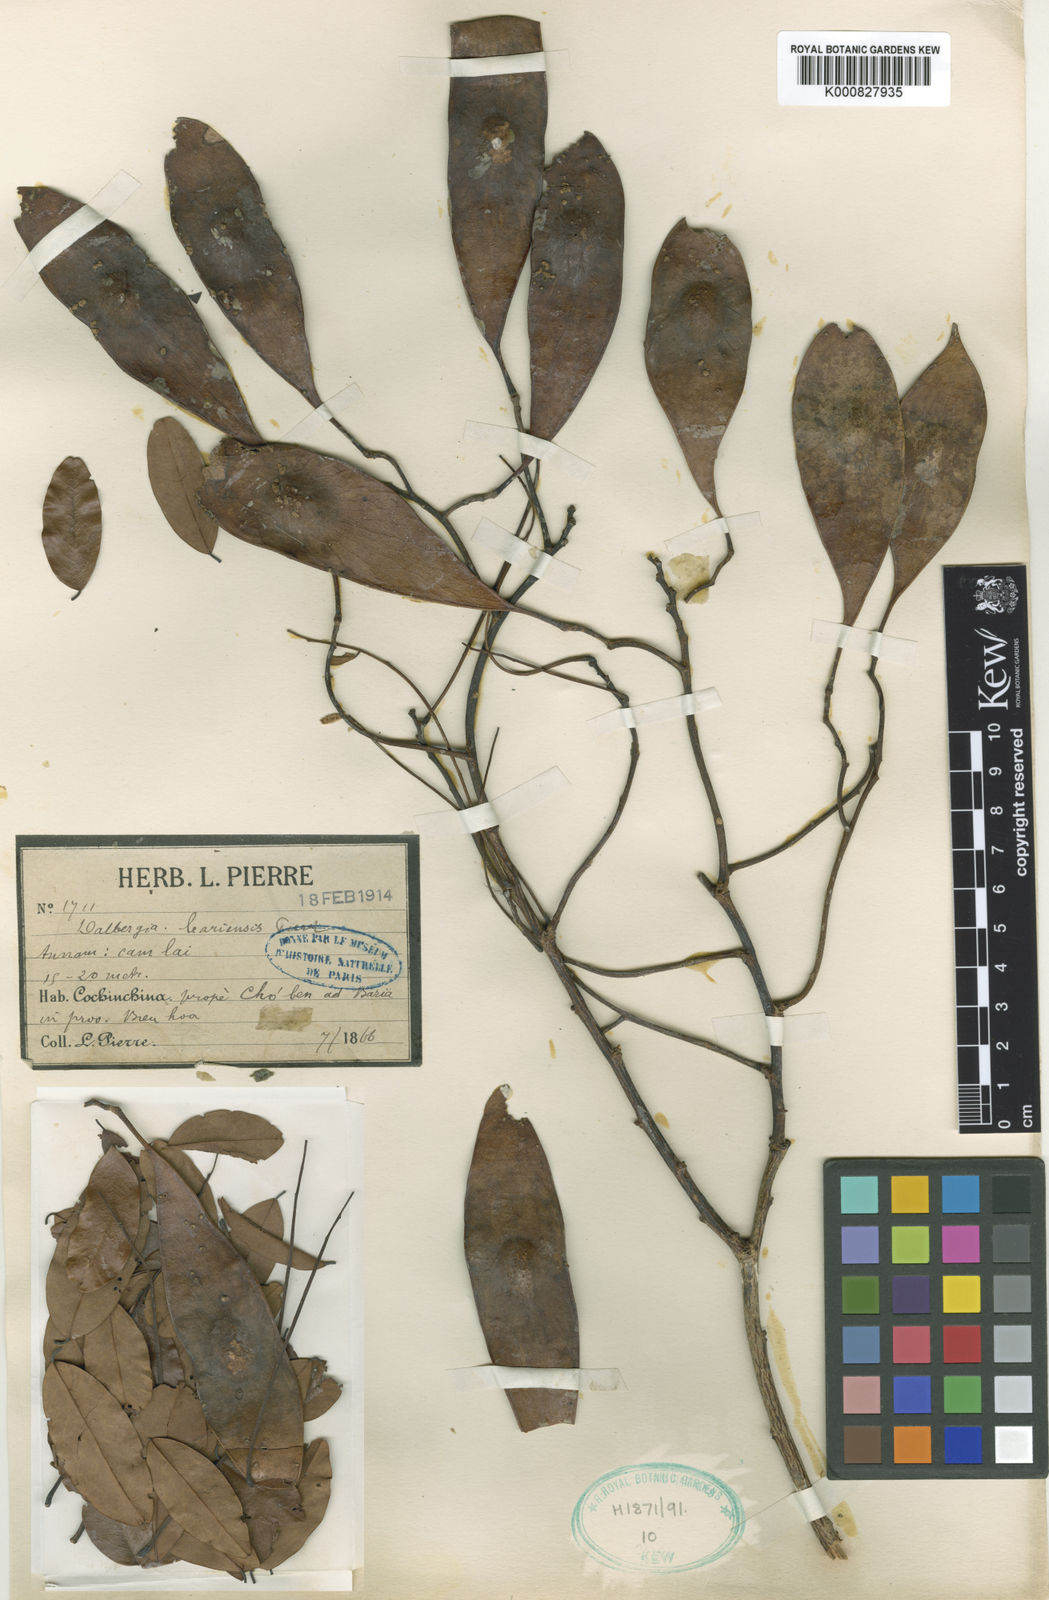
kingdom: Plantae
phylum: Tracheophyta
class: Magnoliopsida
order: Fabales
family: Fabaceae
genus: Dalbergia
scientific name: Dalbergia oliveri
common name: Burmese rosewood
